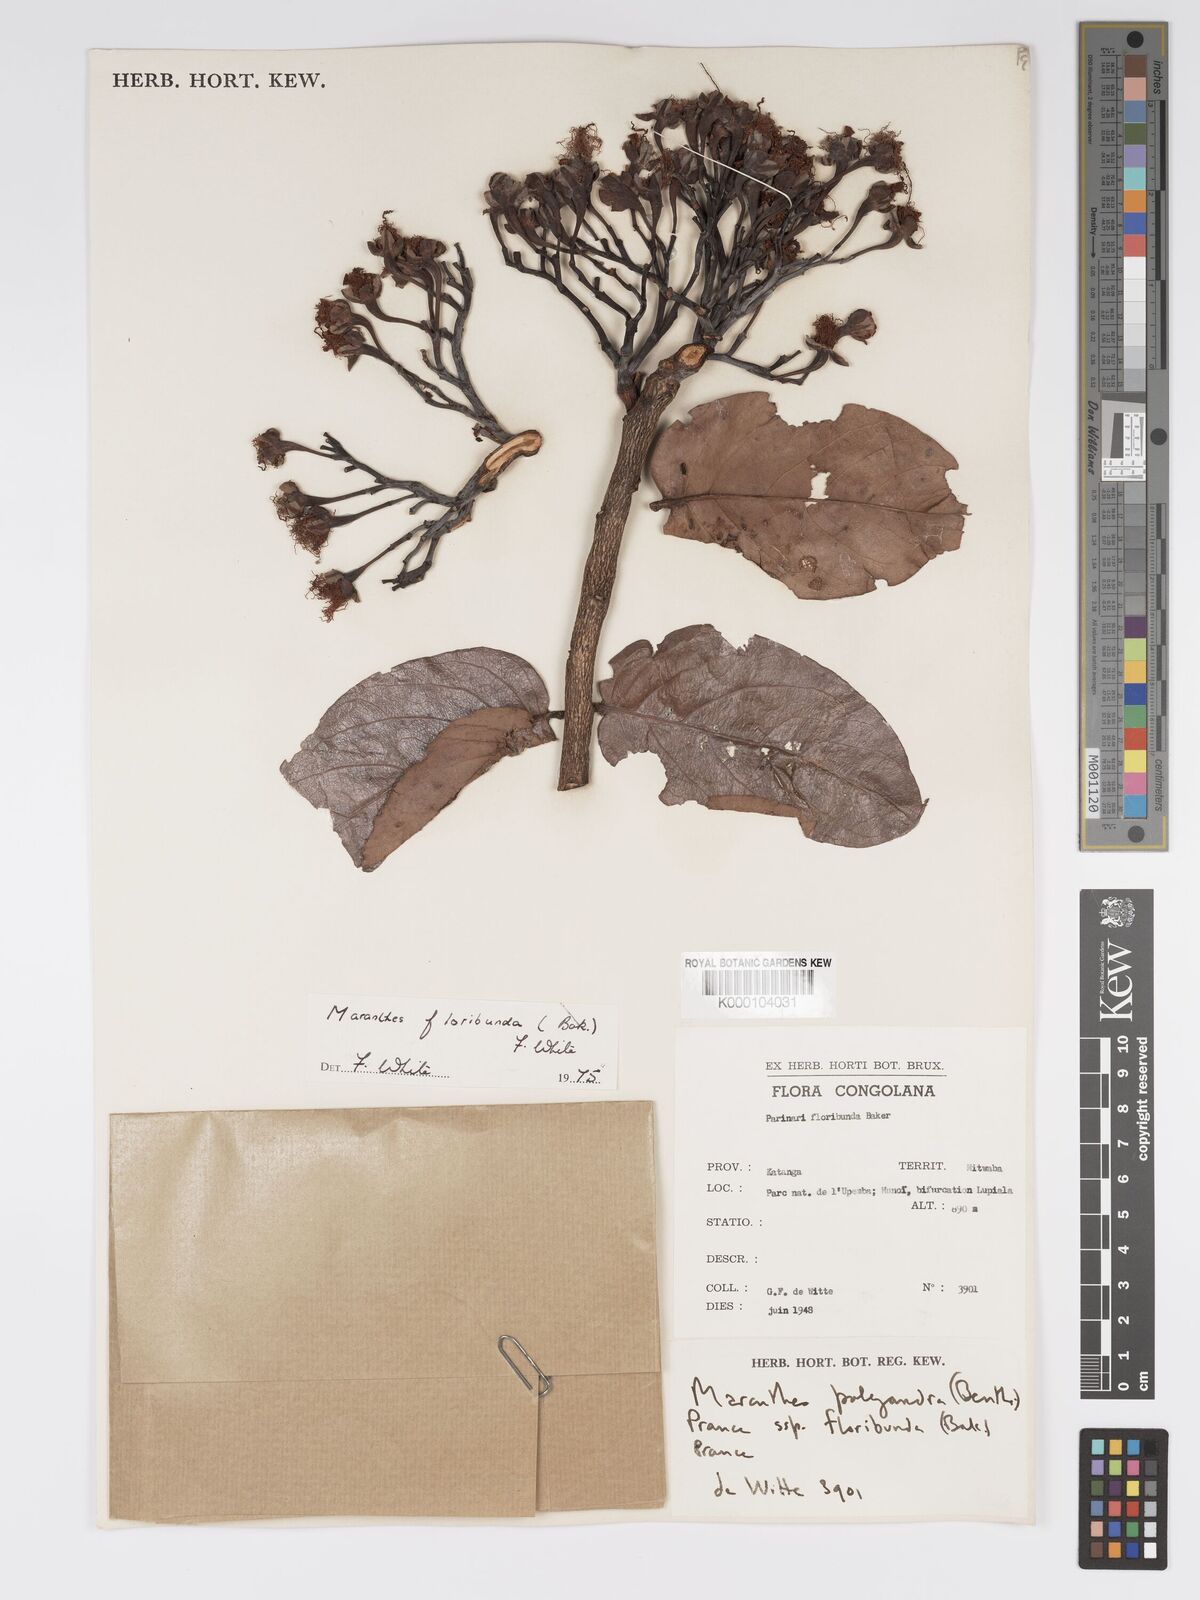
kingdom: Plantae
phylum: Tracheophyta
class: Magnoliopsida
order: Malpighiales
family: Chrysobalanaceae
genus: Maranthes
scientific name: Maranthes floribunda
